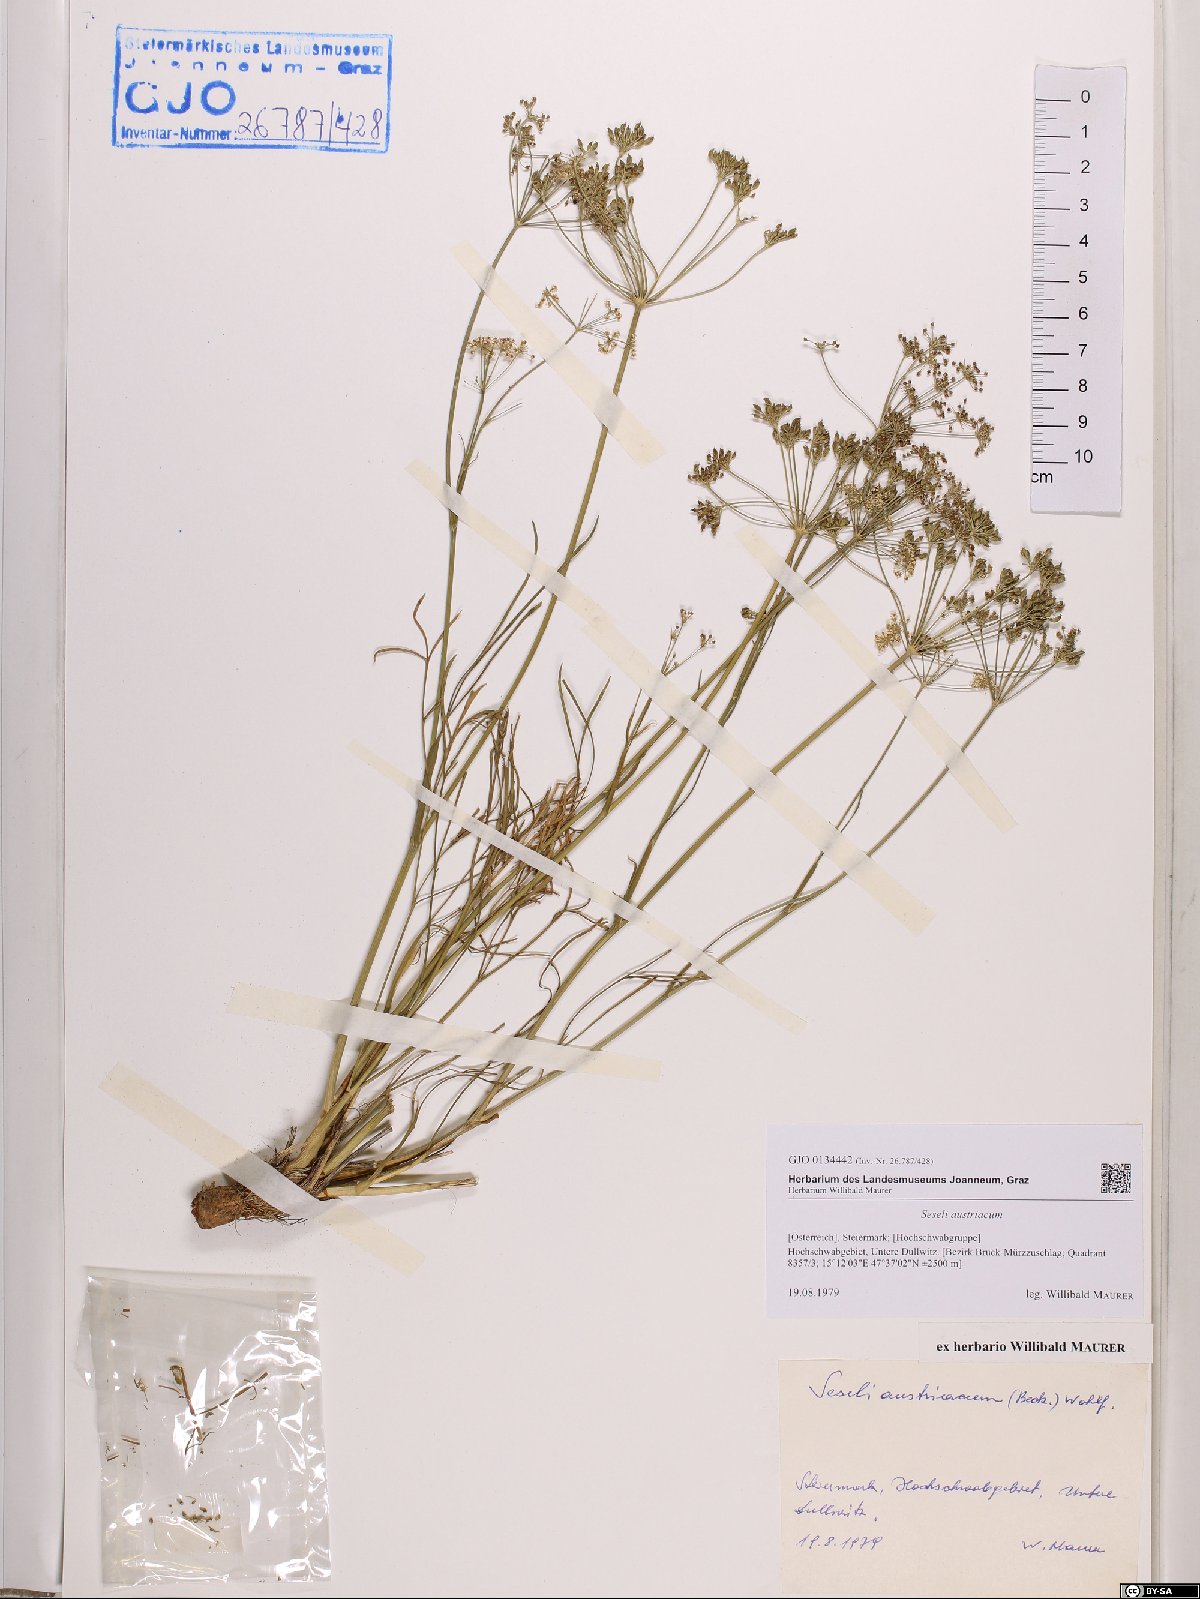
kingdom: Plantae
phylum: Tracheophyta
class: Magnoliopsida
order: Apiales
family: Apiaceae
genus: Seseli
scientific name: Seseli austriacum
